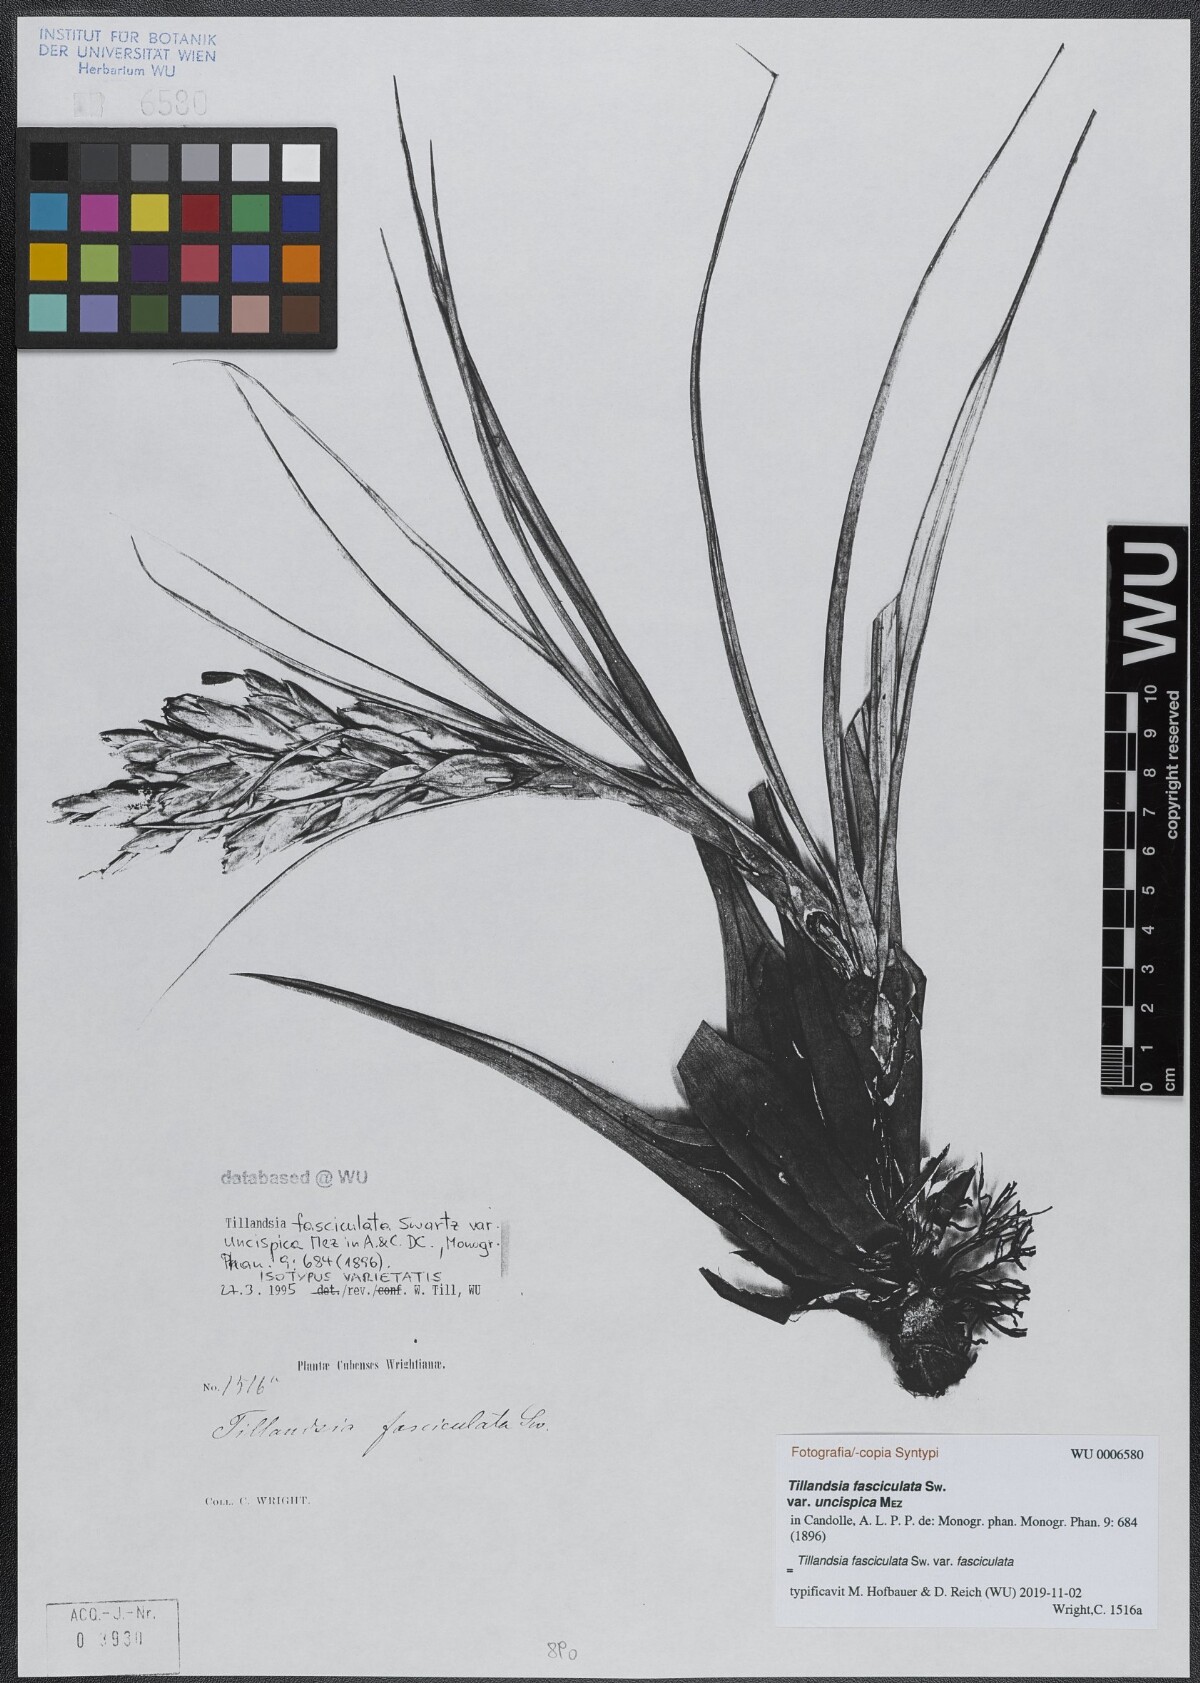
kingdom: Plantae
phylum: Tracheophyta
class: Liliopsida
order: Poales
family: Bromeliaceae
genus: Tillandsia
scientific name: Tillandsia fasciculata
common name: Giant airplant
